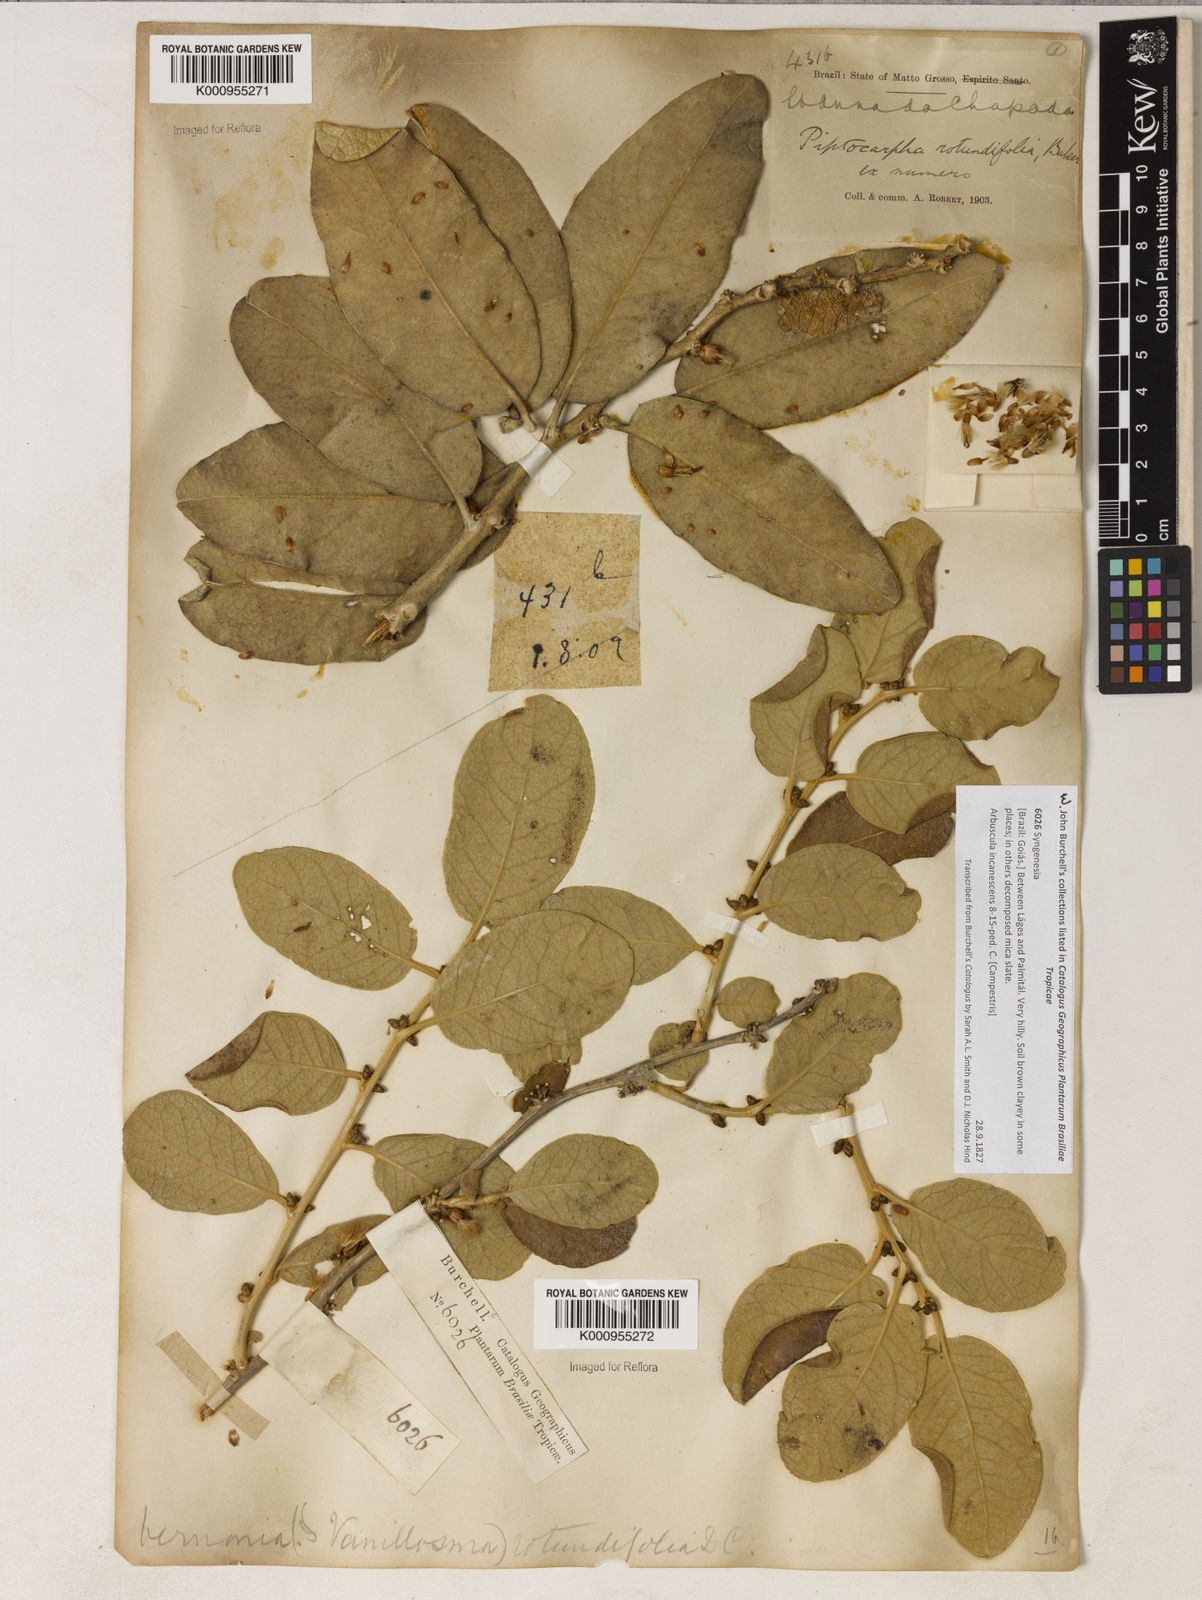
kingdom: Plantae
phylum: Tracheophyta
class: Magnoliopsida
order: Asterales
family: Asteraceae
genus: Piptocarpha
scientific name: Piptocarpha rotundifolia
